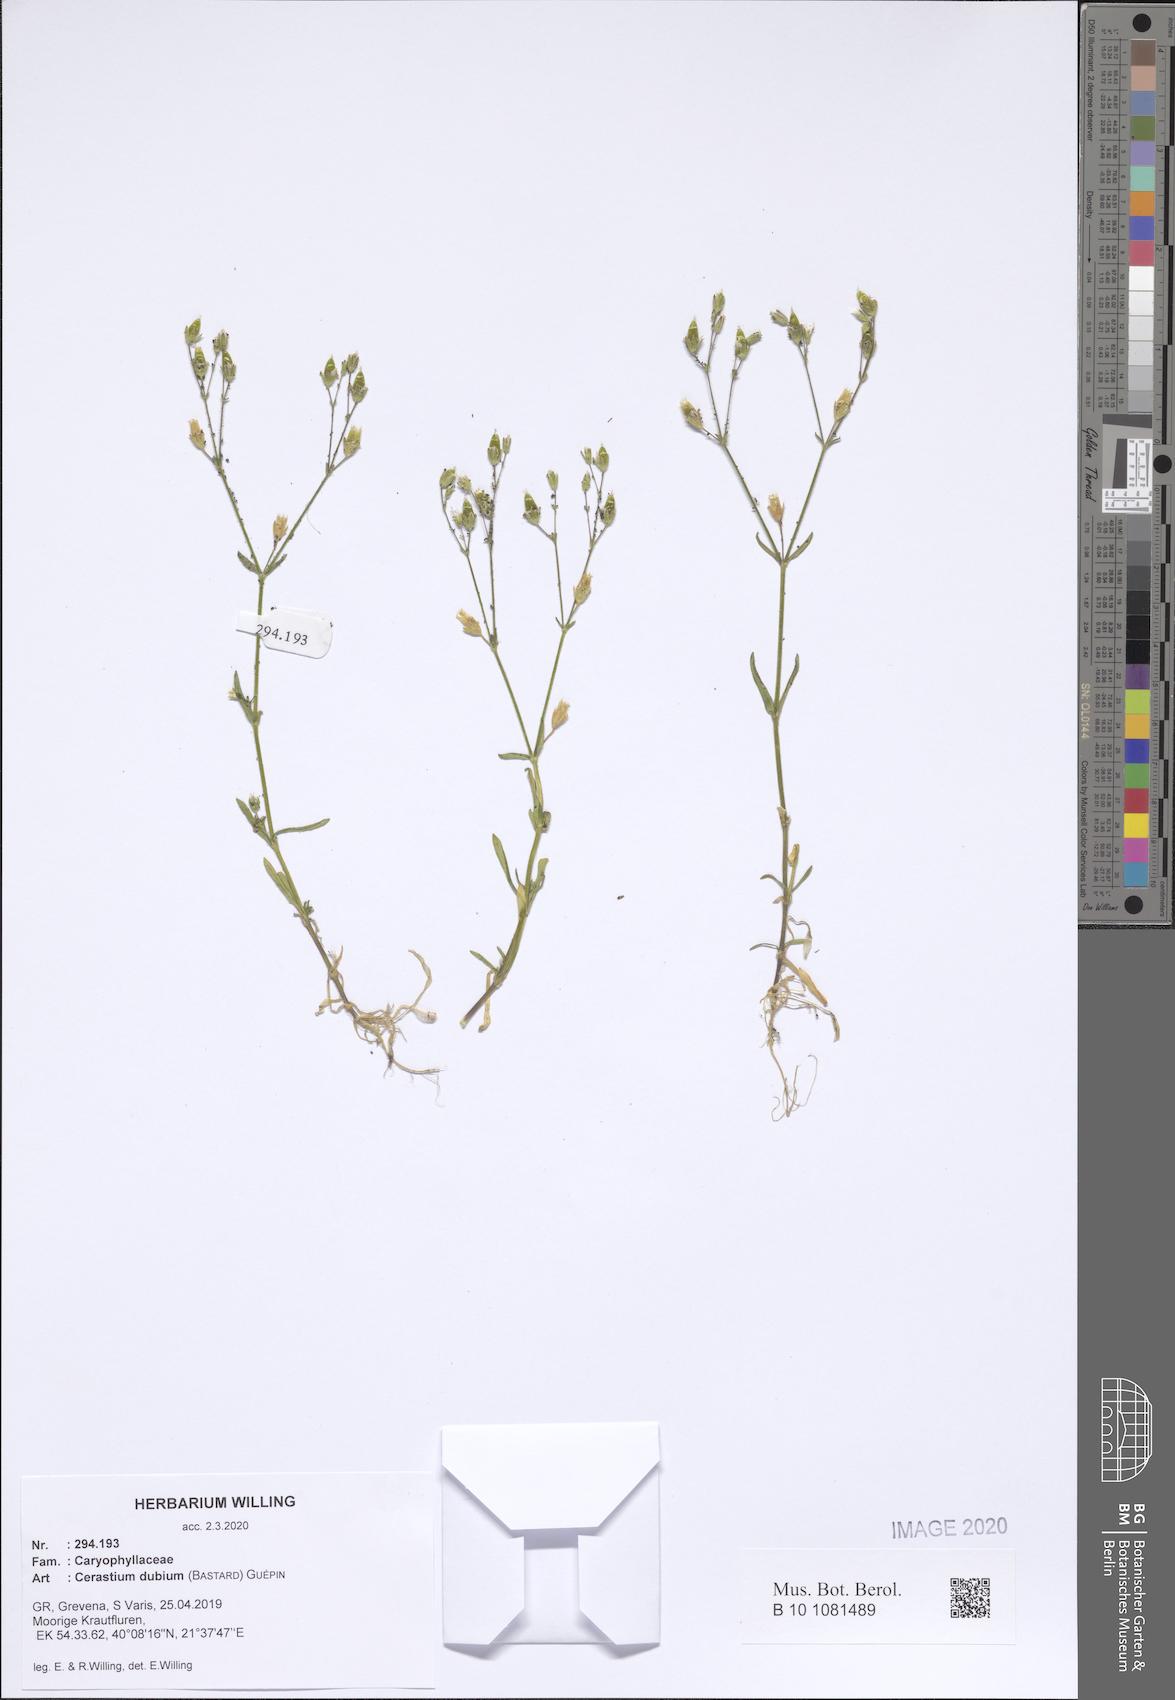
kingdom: Plantae
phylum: Tracheophyta
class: Magnoliopsida
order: Caryophyllales
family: Caryophyllaceae
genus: Dichodon
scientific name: Dichodon viscidum
